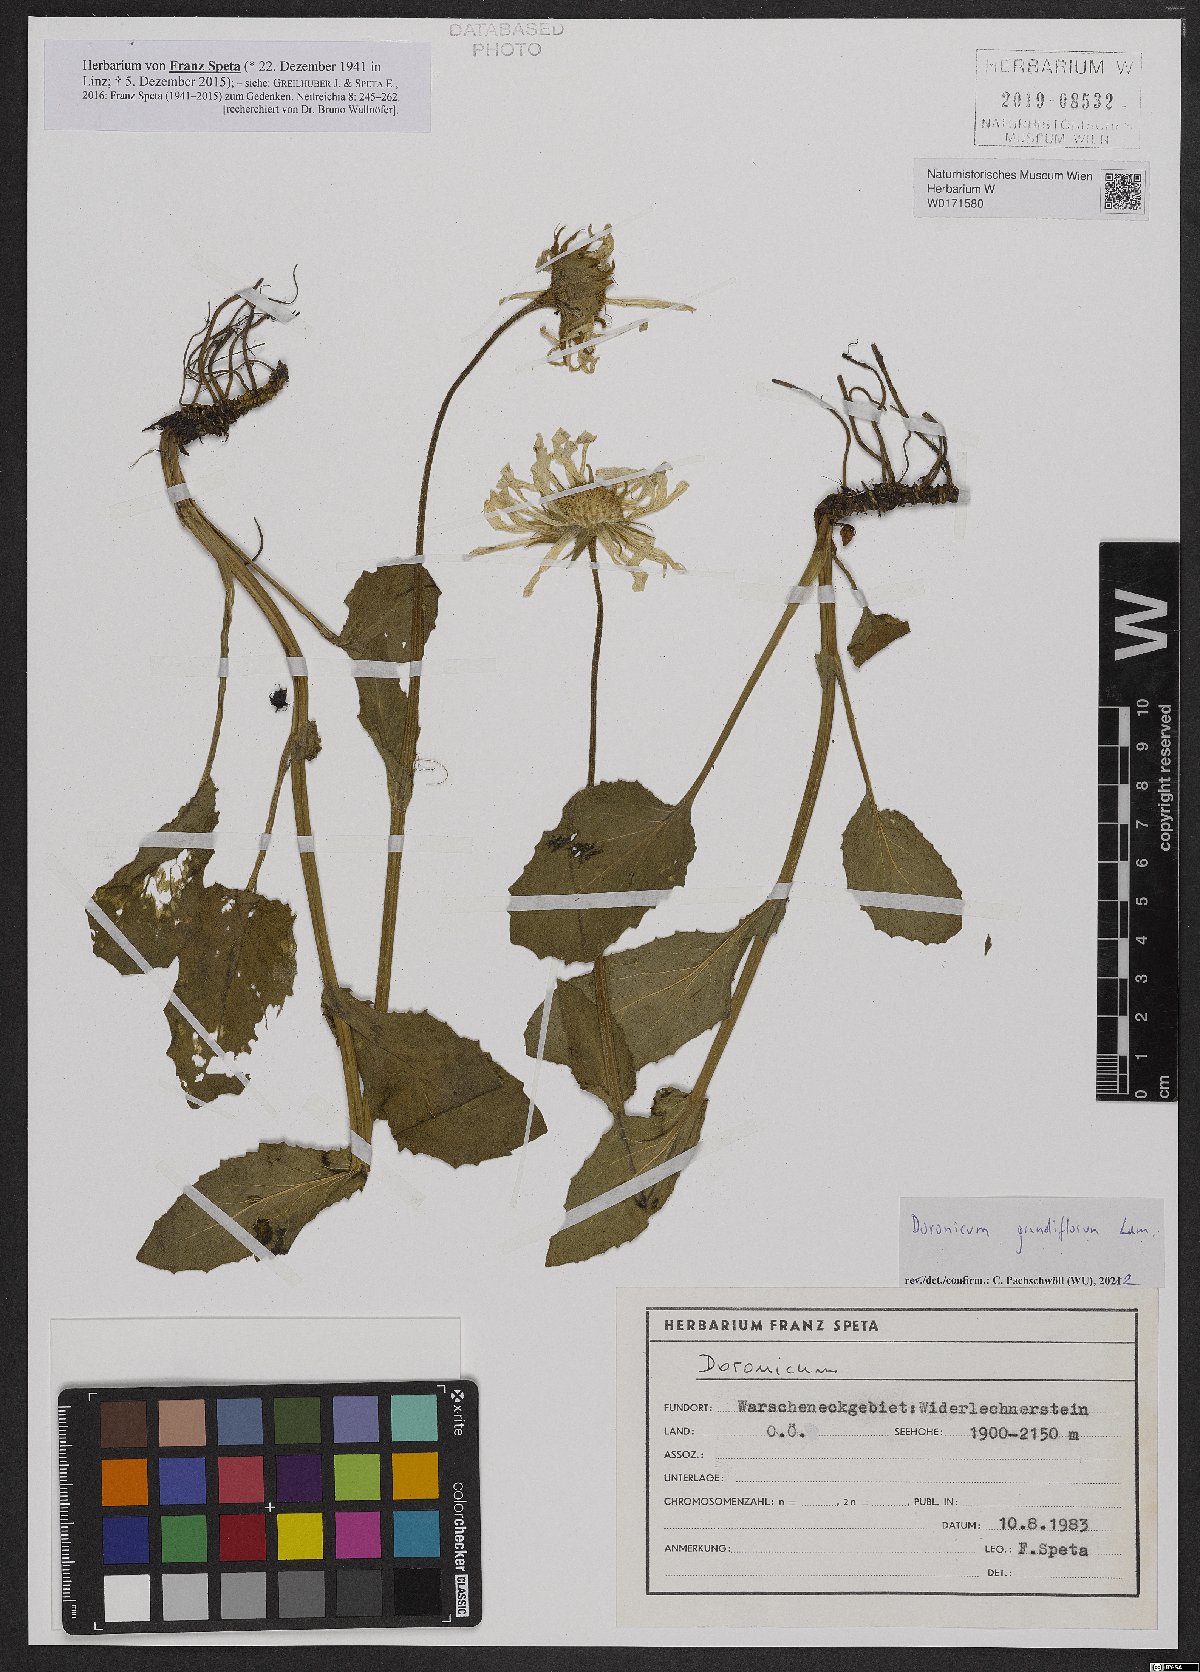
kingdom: Plantae
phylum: Tracheophyta
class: Magnoliopsida
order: Asterales
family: Asteraceae
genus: Doronicum
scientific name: Doronicum grandiflorum
